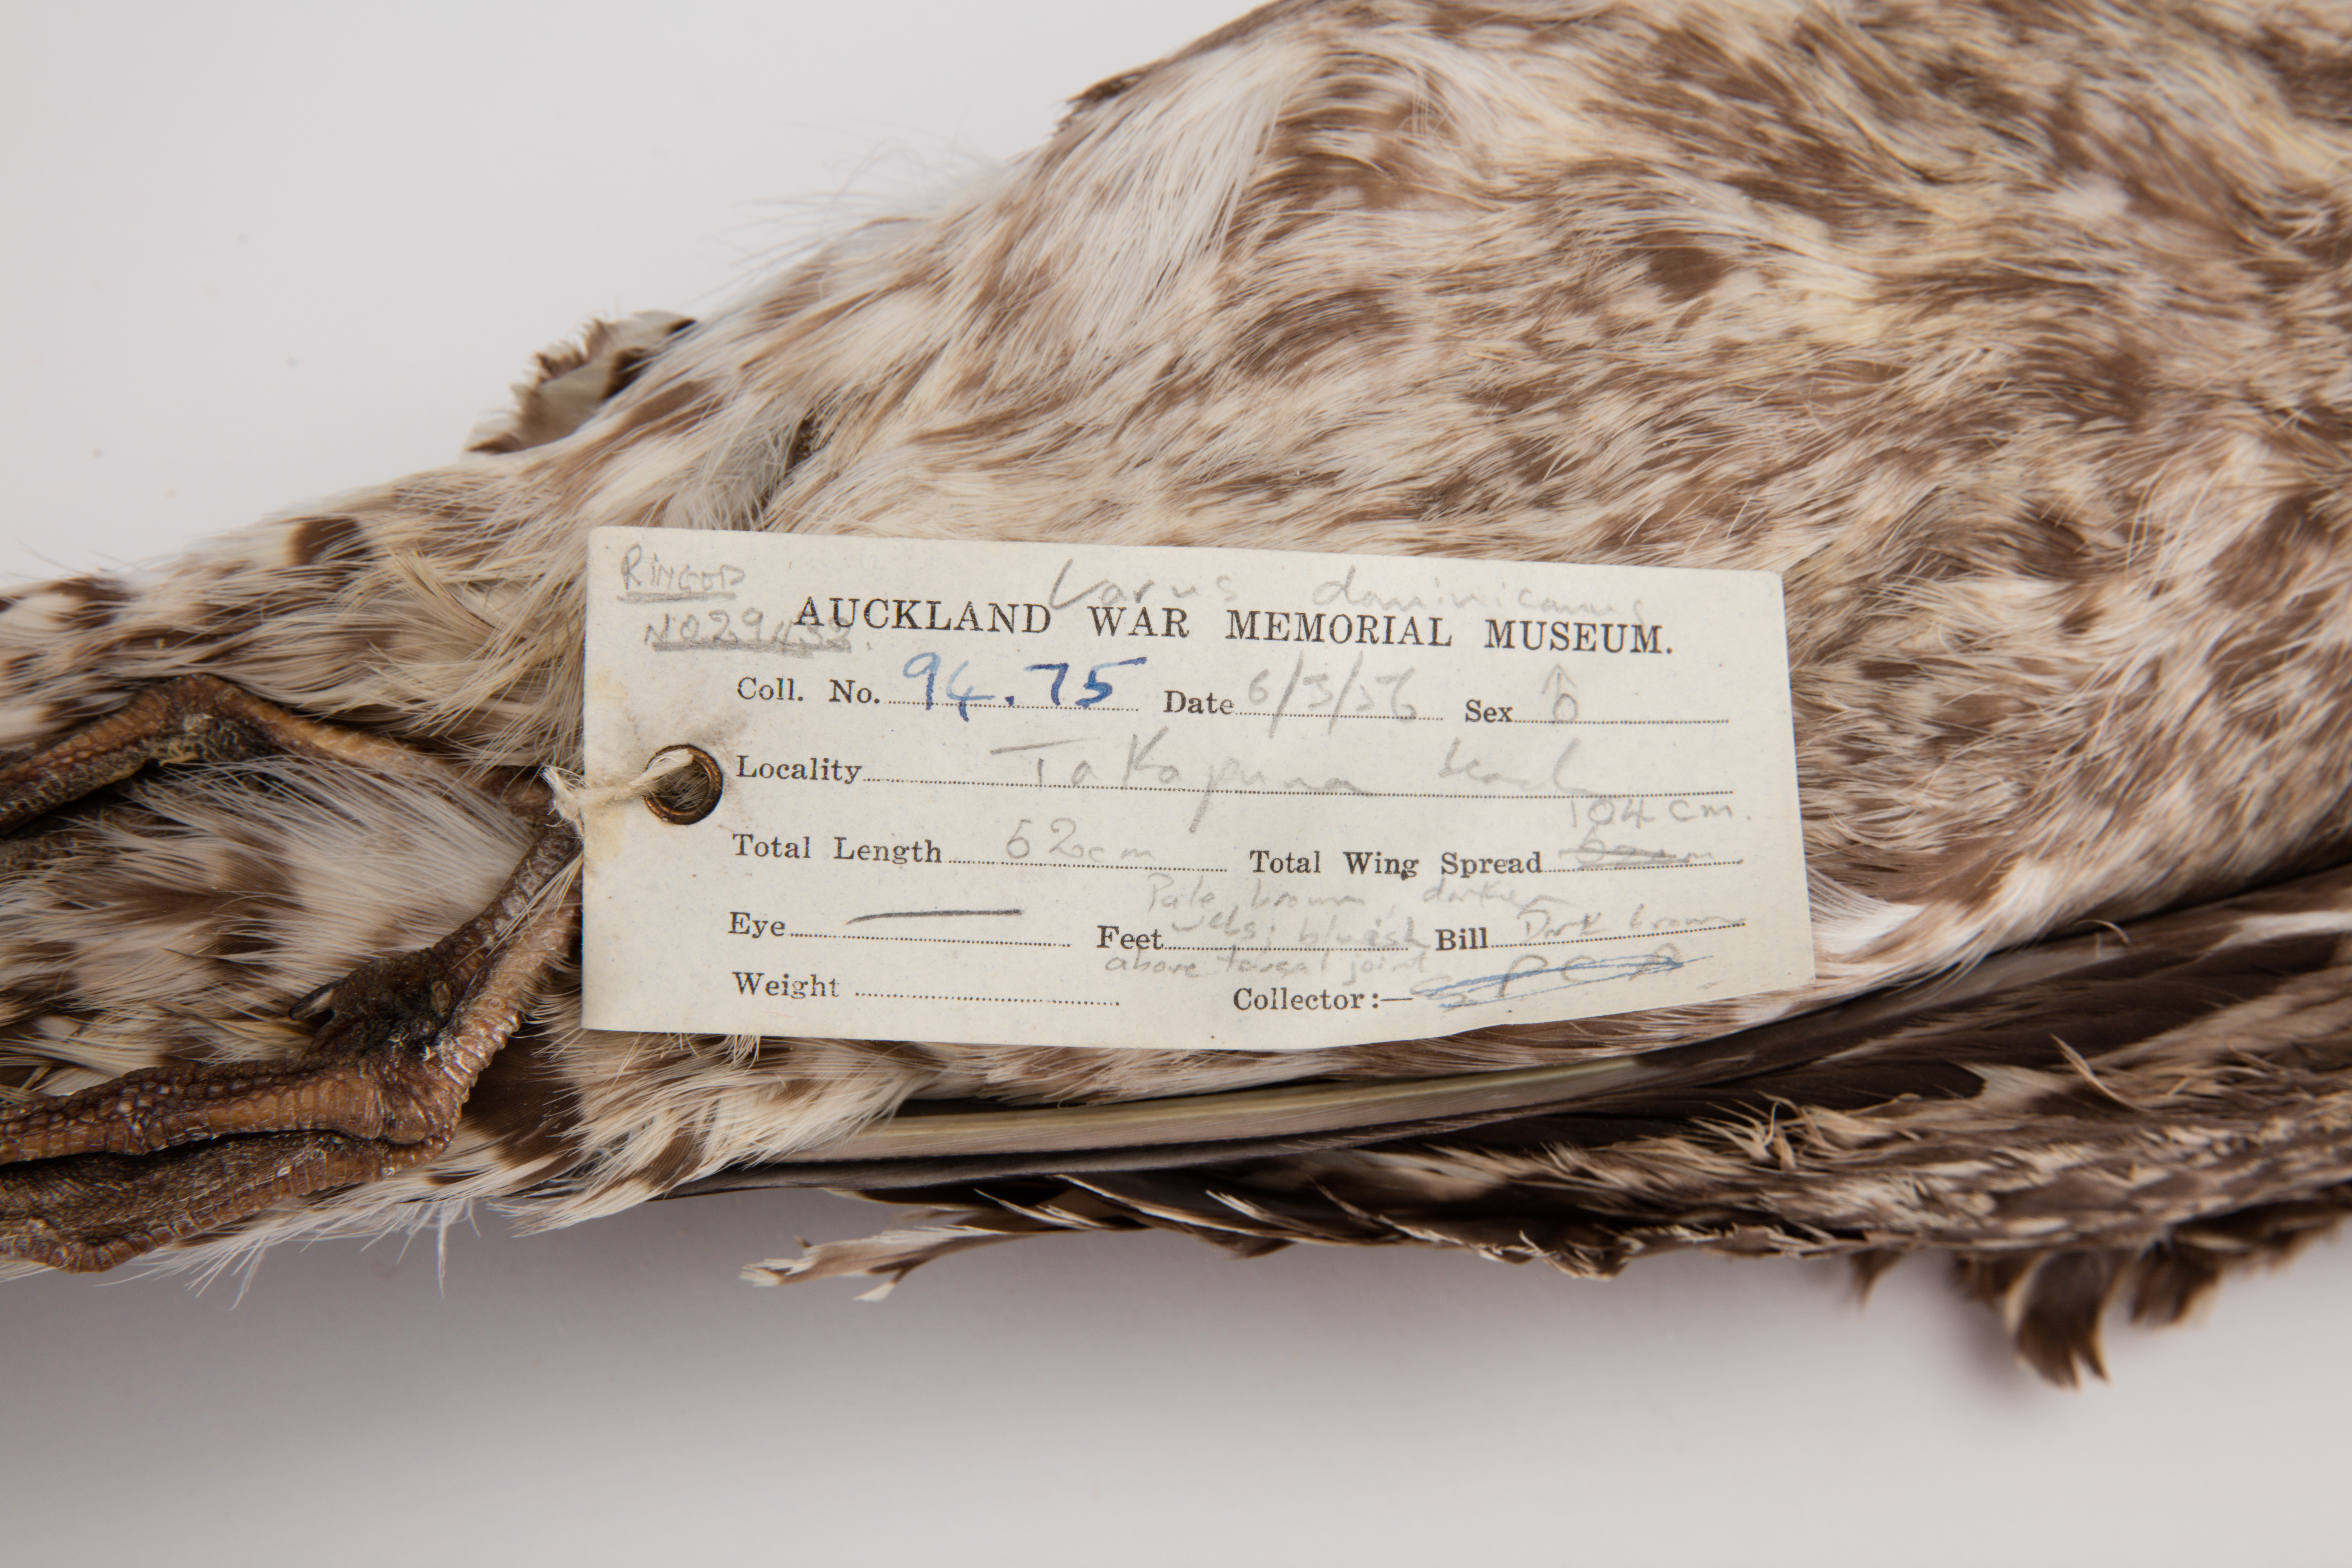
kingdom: Animalia
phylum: Chordata
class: Aves
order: Charadriiformes
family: Laridae
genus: Larus
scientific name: Larus dominicanus
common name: Kelp gull
